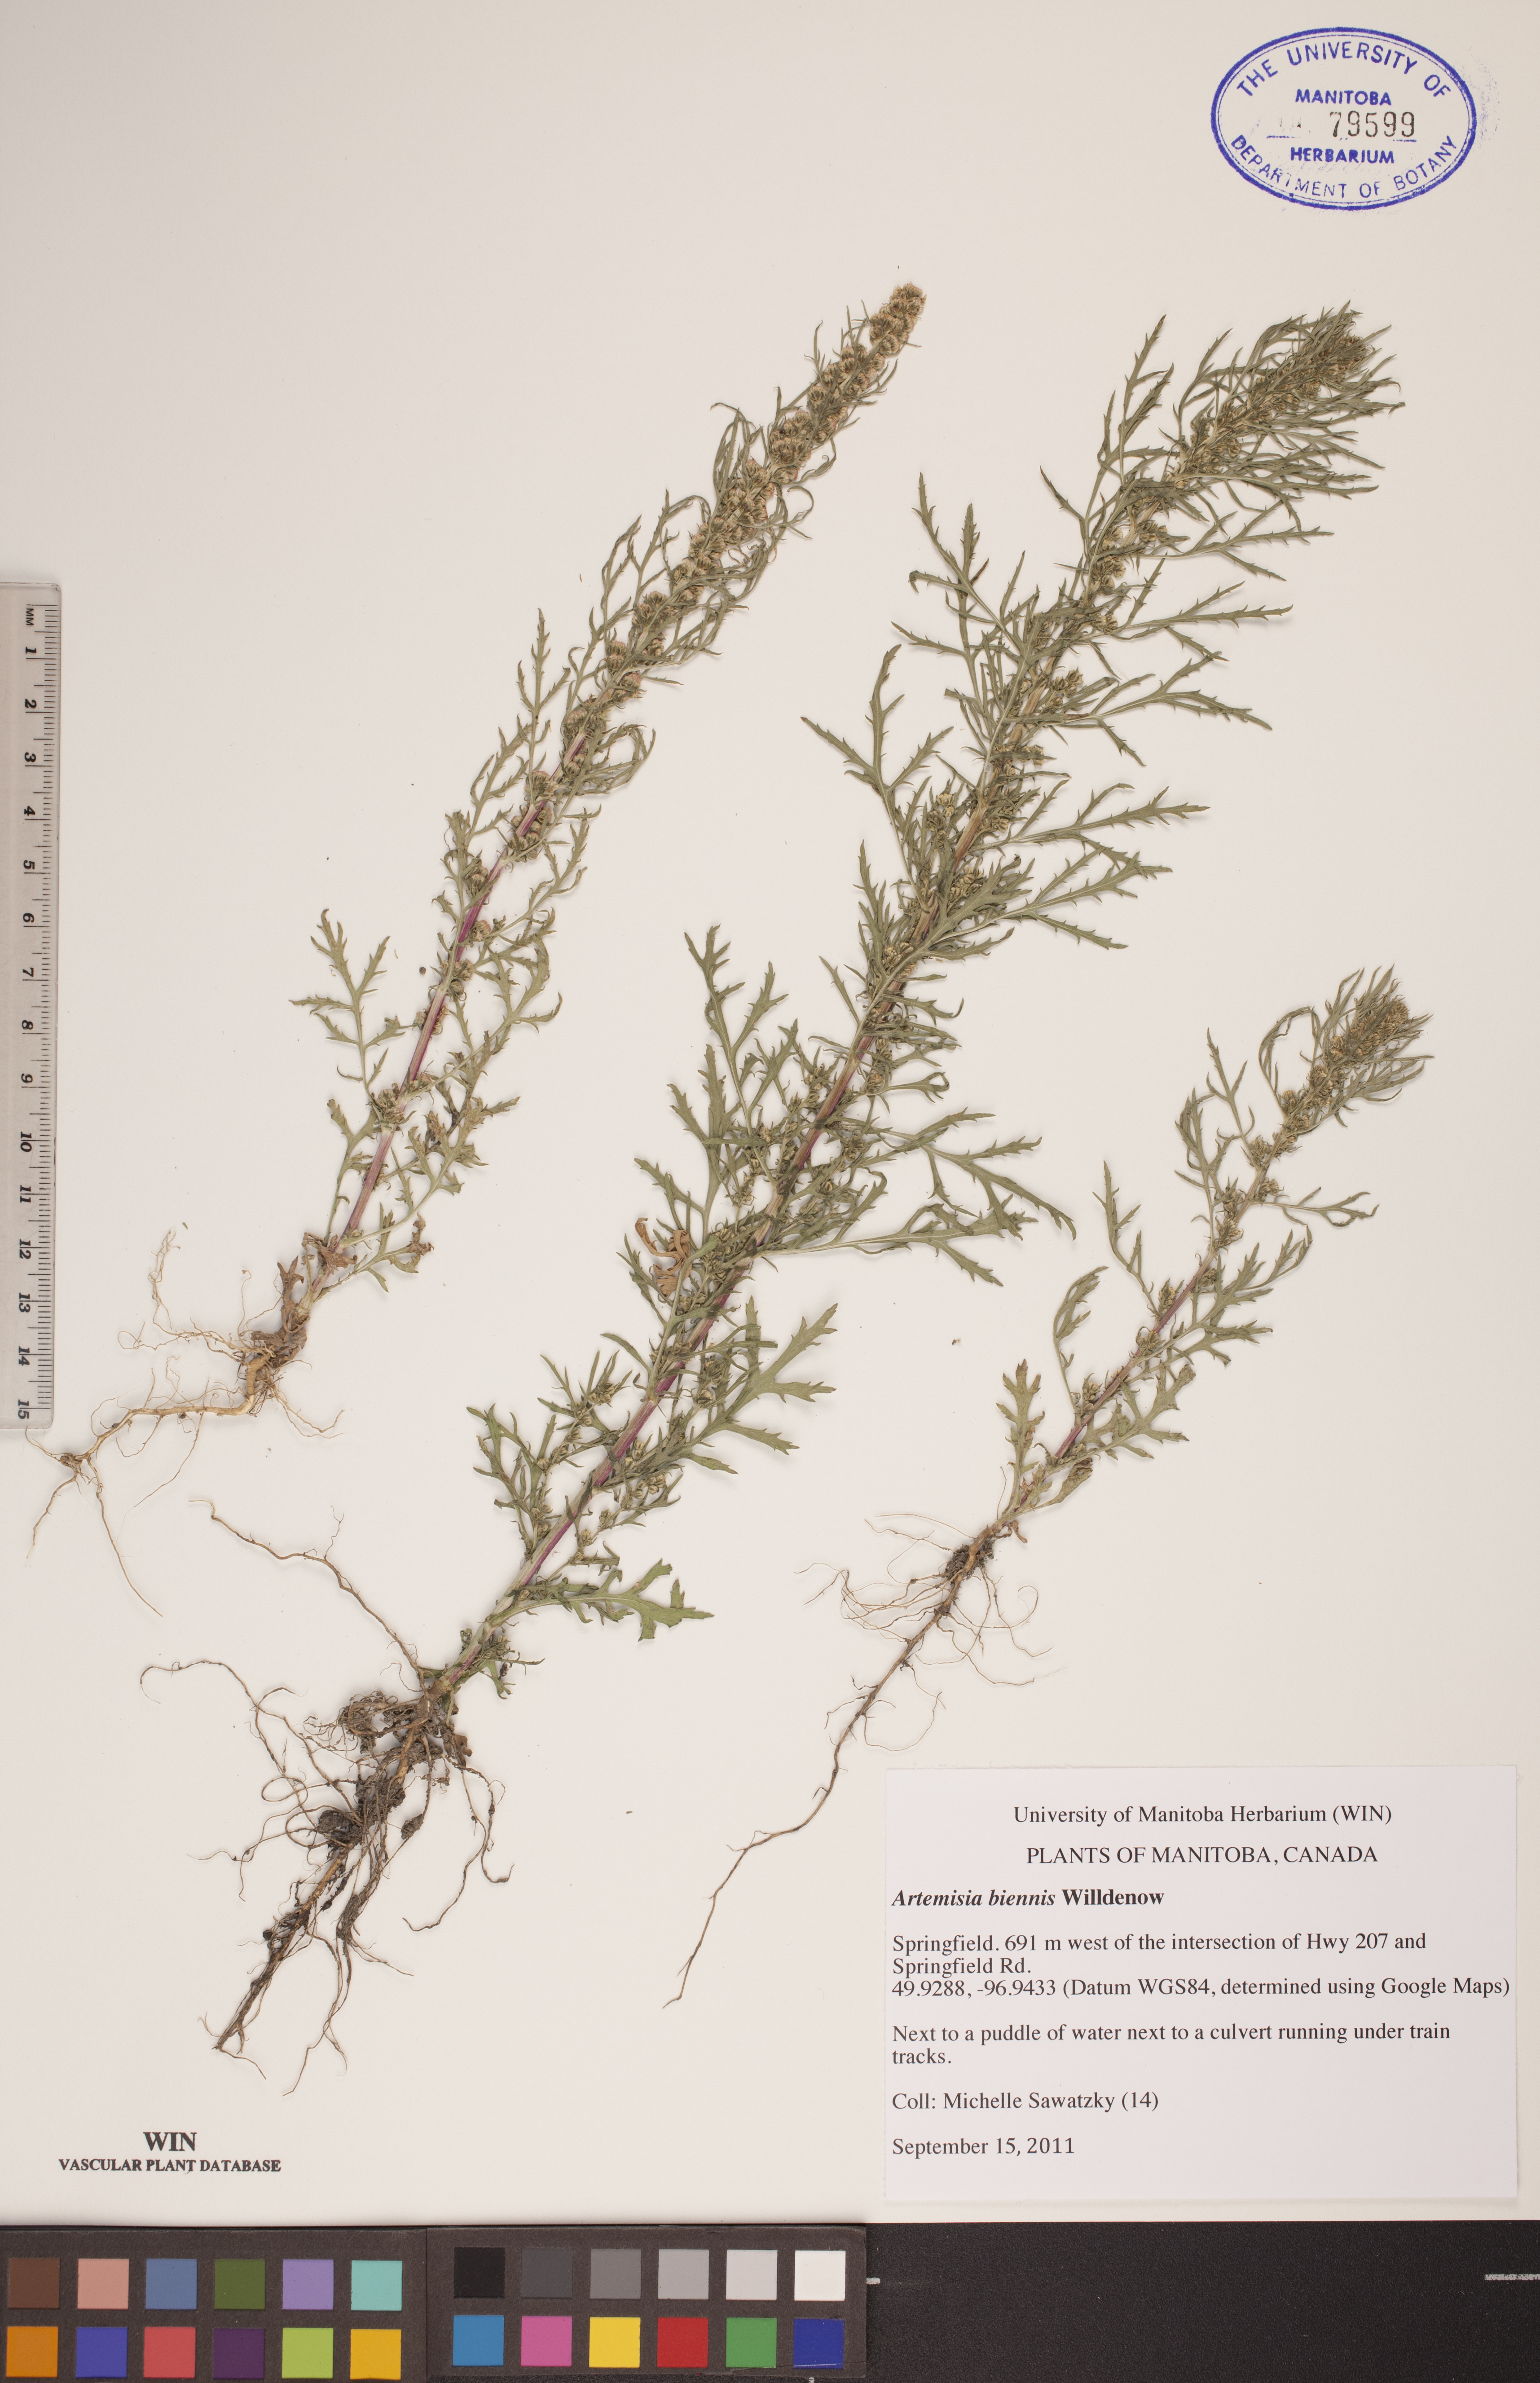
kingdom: Plantae
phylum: Tracheophyta
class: Magnoliopsida
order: Asterales
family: Asteraceae
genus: Artemisia
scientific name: Artemisia biennis
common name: Biennial wormwood
